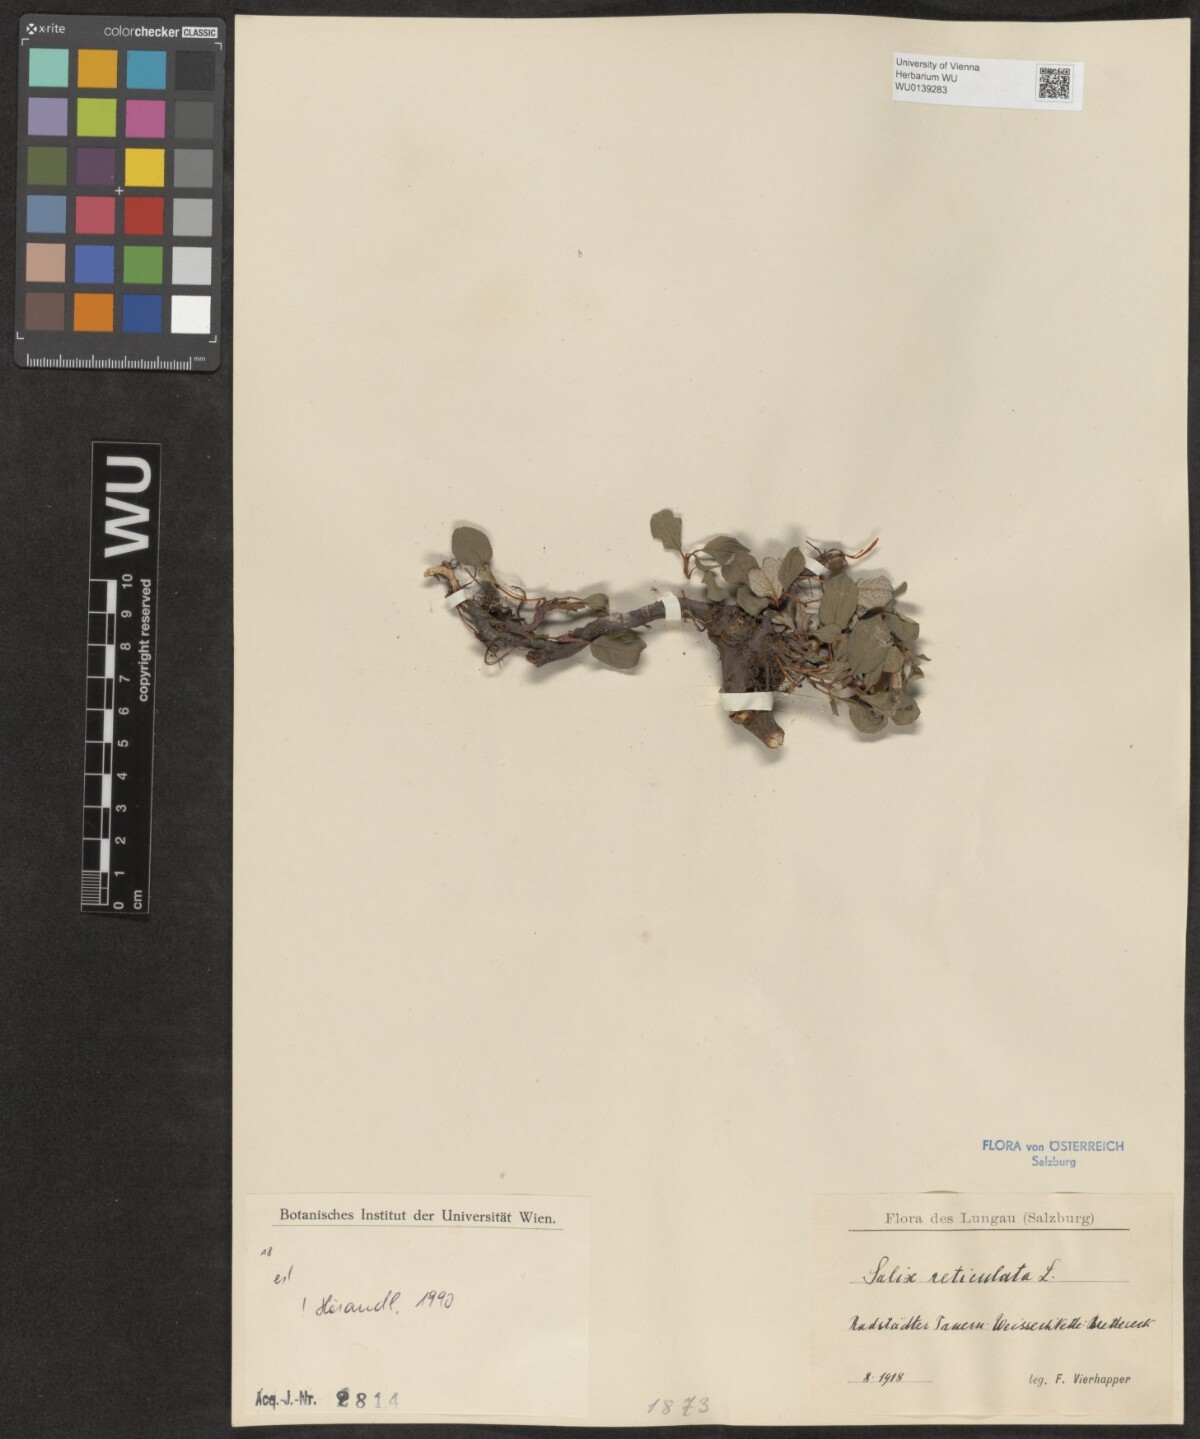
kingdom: Plantae
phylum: Tracheophyta
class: Magnoliopsida
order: Malpighiales
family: Salicaceae
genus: Salix
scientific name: Salix reticulata
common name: Net-leaved willow
